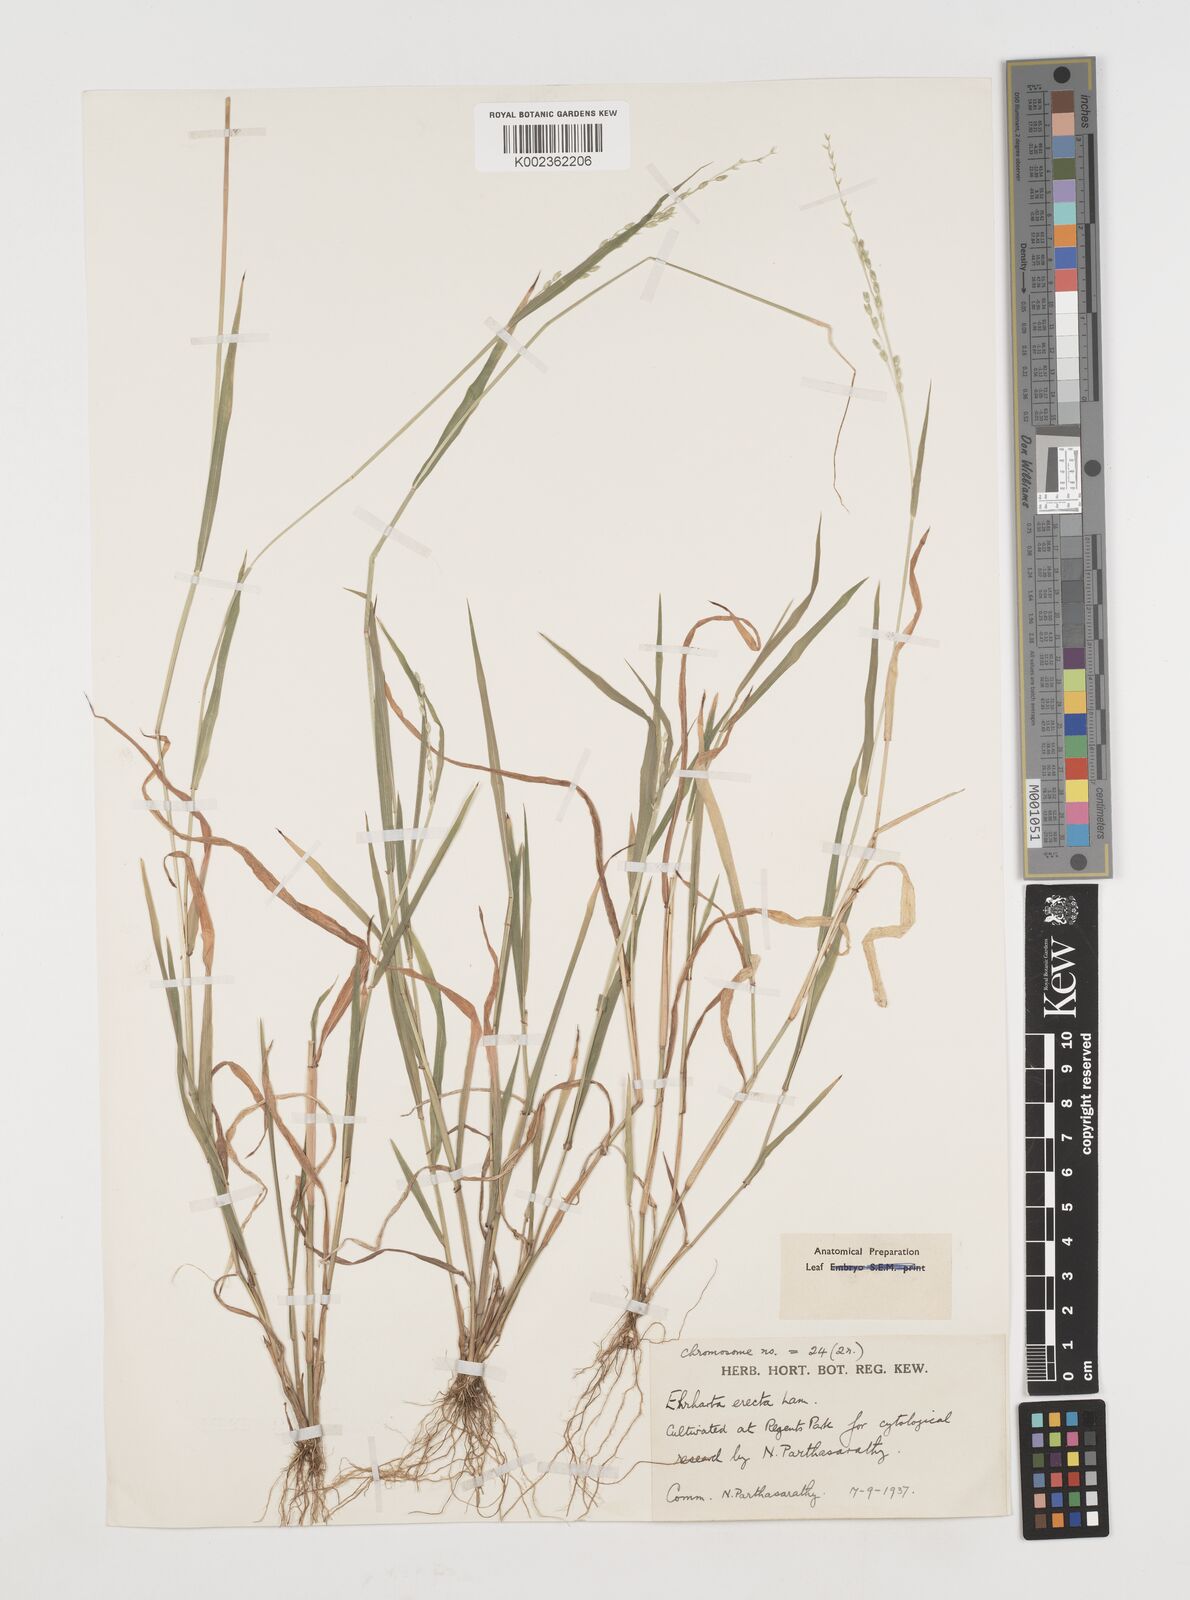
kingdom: Plantae
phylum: Tracheophyta
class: Liliopsida
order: Poales
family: Poaceae
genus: Ehrharta
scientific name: Ehrharta erecta
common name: Panic veldtgrass
